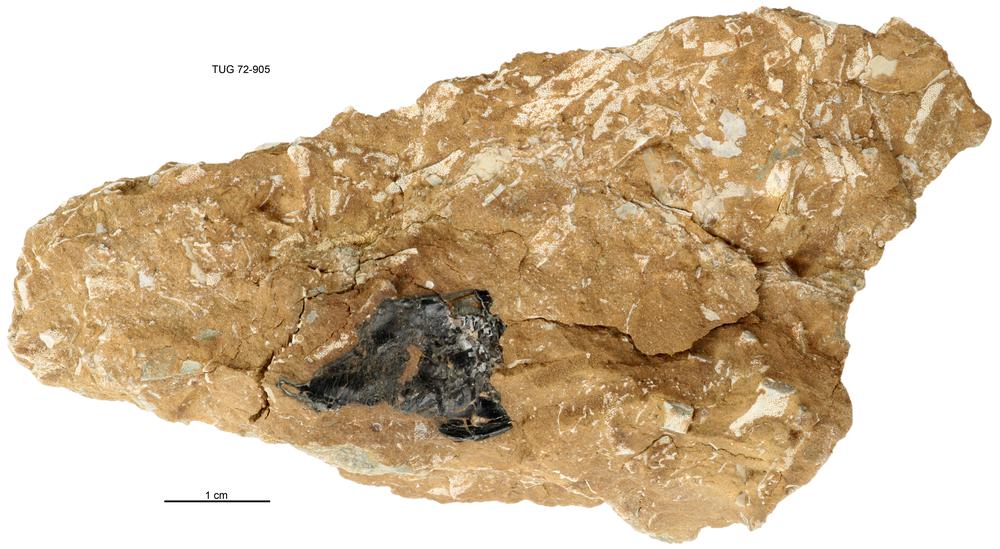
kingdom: Animalia
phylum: Cnidaria
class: Scyphozoa
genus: Sphenothallus
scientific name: Sphenothallus
